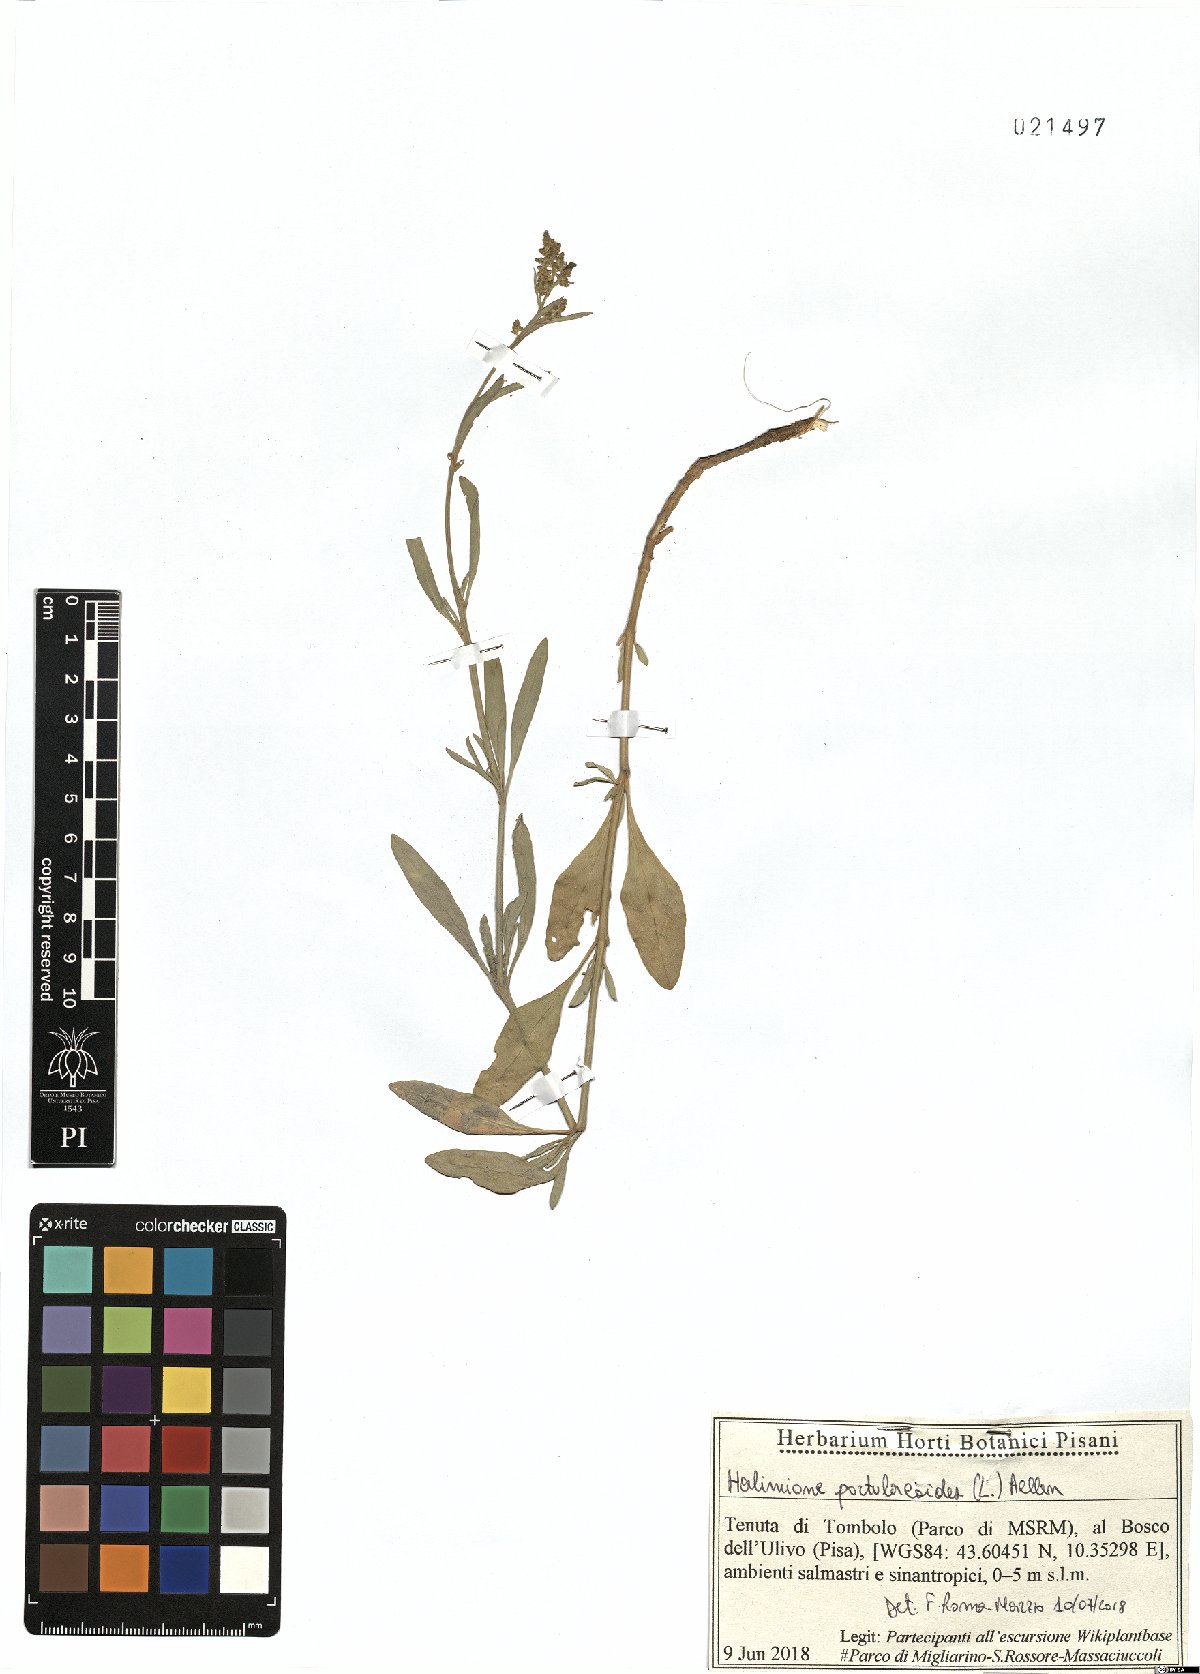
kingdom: Plantae
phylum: Tracheophyta
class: Magnoliopsida
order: Caryophyllales
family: Amaranthaceae
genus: Halimione
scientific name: Halimione portulacoides
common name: Sea-purslane
